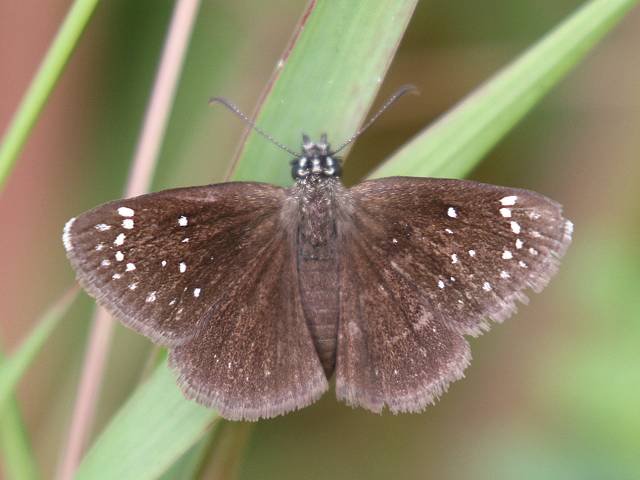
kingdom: Animalia
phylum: Arthropoda
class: Insecta
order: Lepidoptera
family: Hesperiidae
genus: Pholisora
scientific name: Pholisora catullus
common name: Common Sootywing
